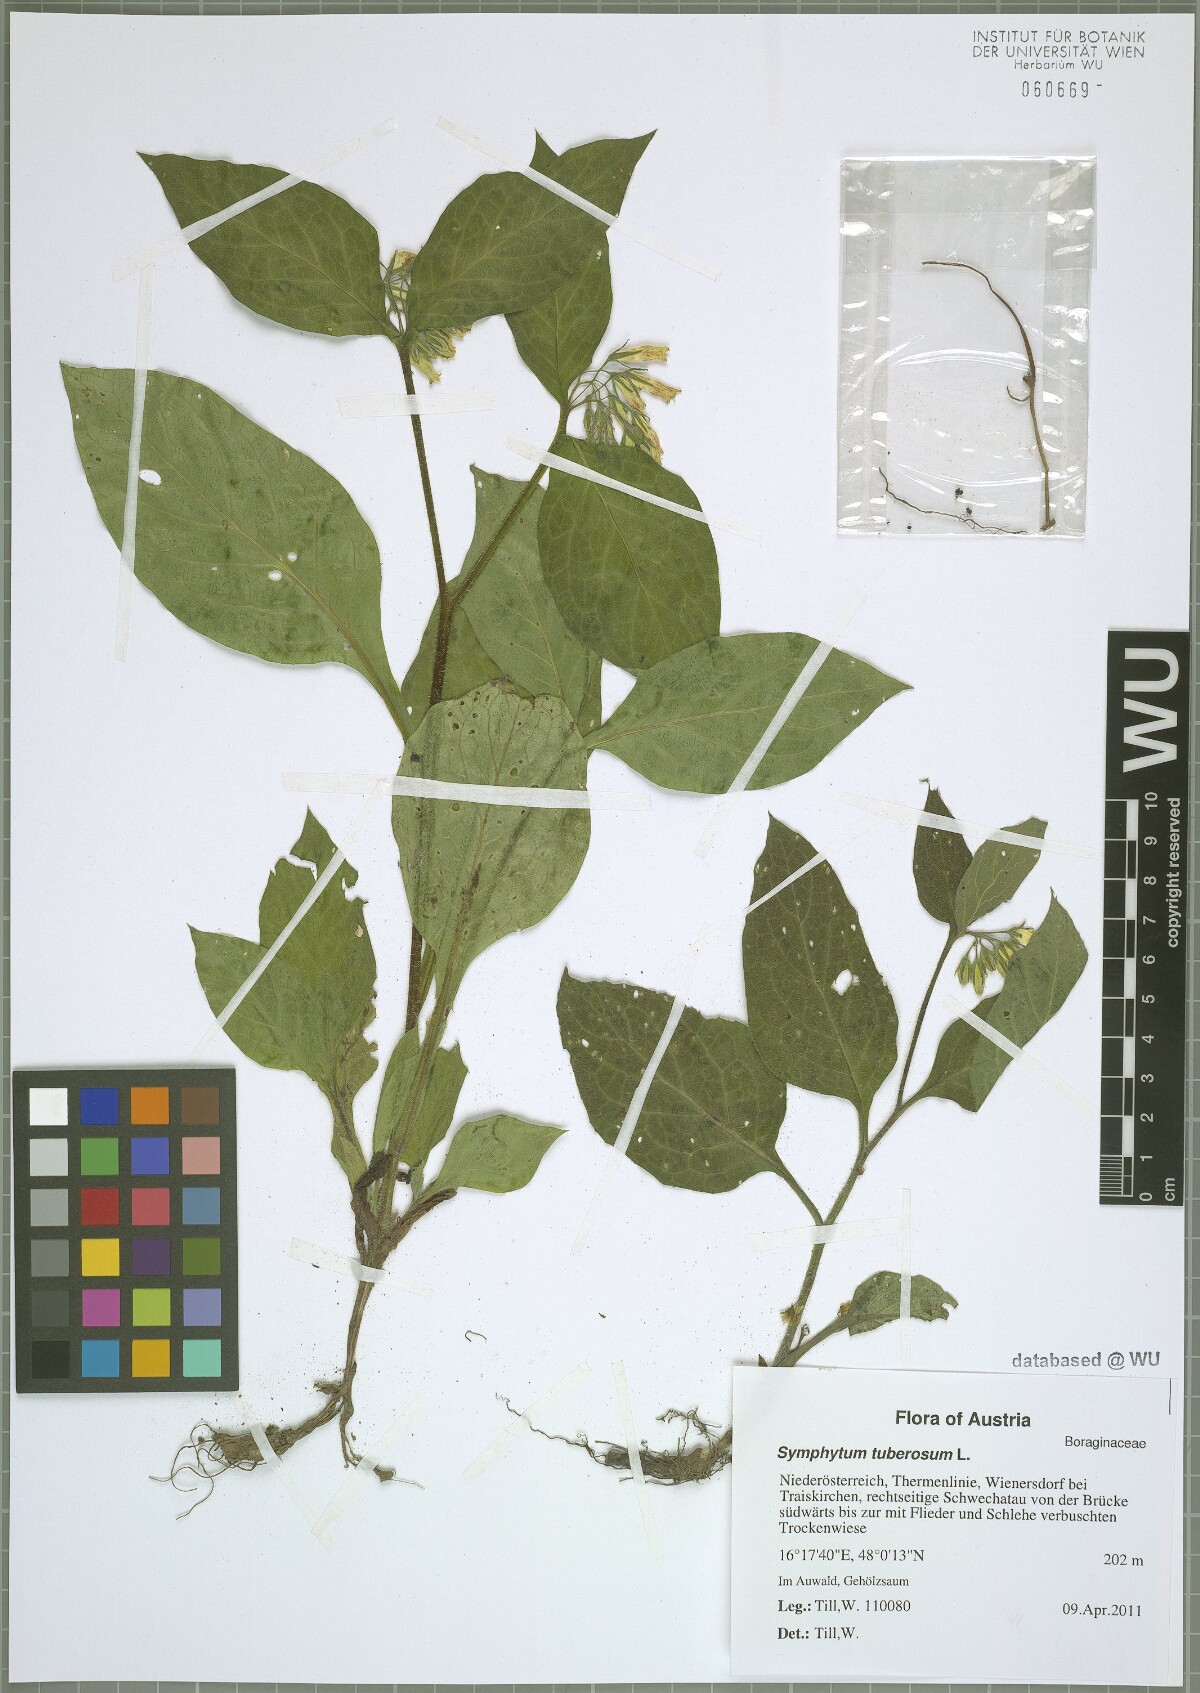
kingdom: Plantae
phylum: Tracheophyta
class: Magnoliopsida
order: Boraginales
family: Boraginaceae
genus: Symphytum
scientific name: Symphytum tuberosum
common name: Tuberous comfrey
